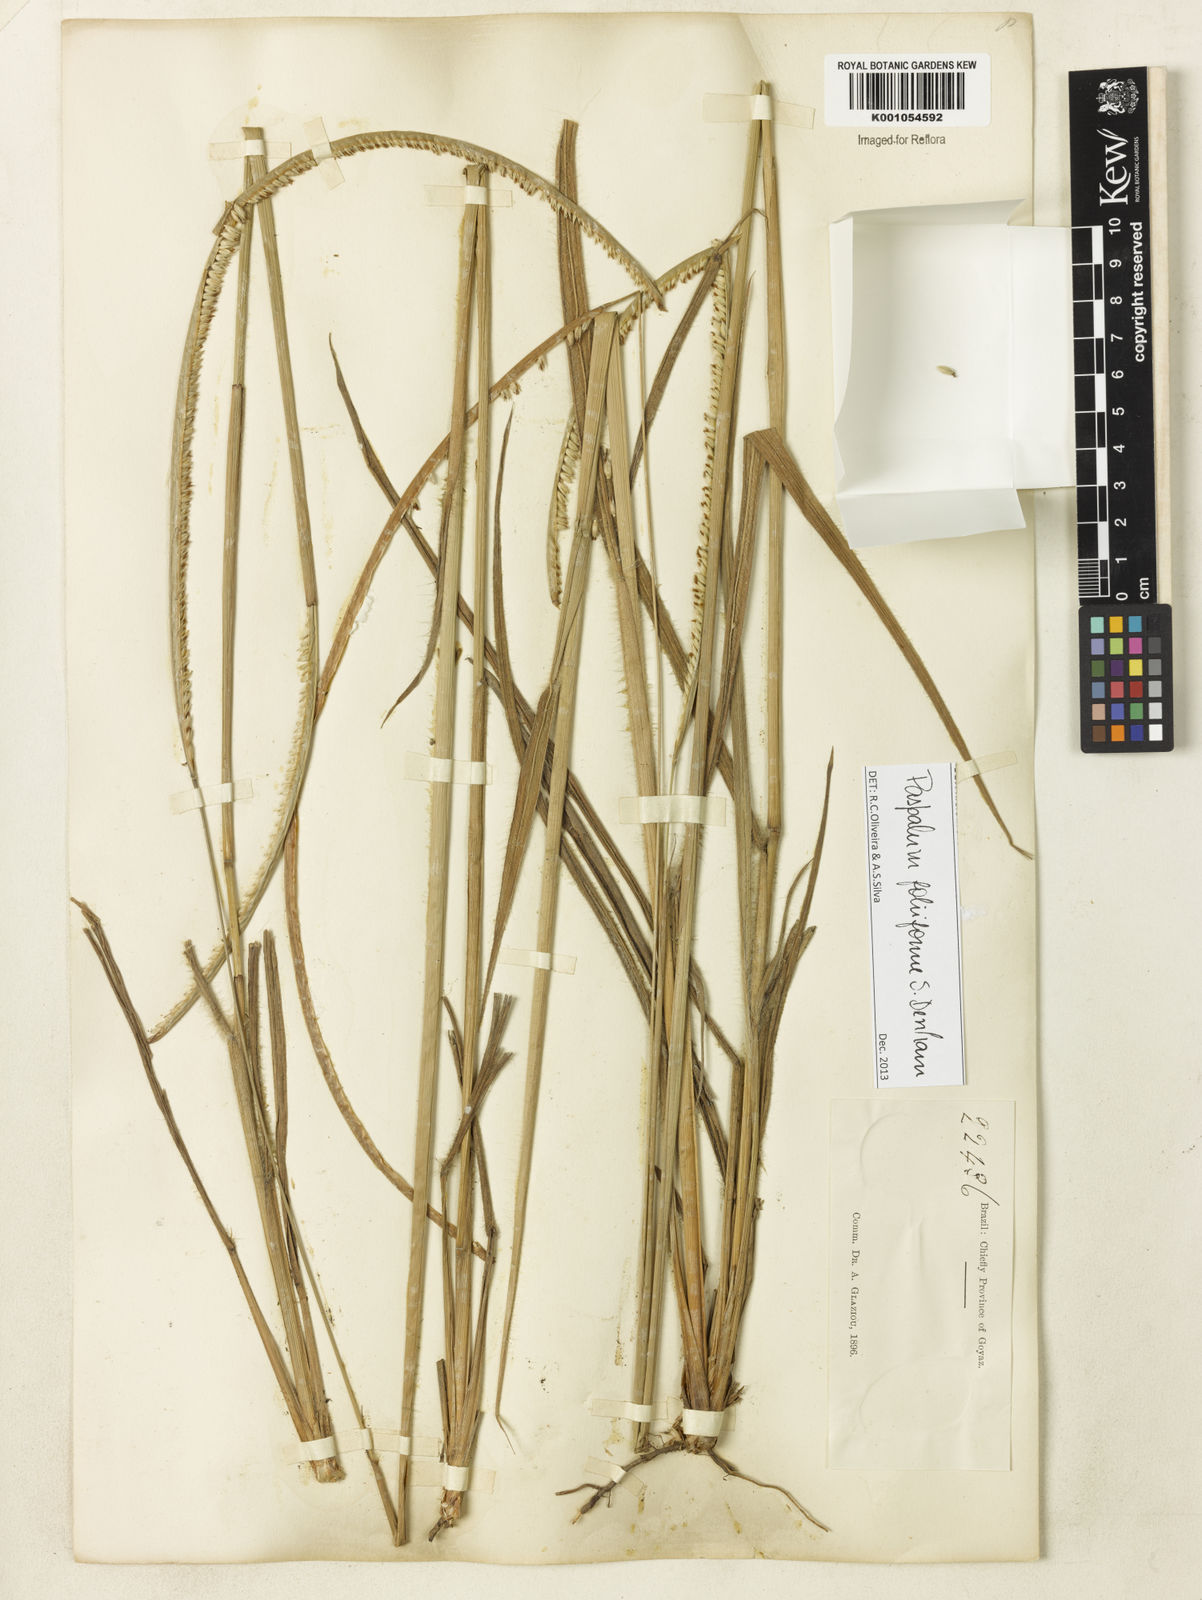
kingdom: Plantae
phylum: Tracheophyta
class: Liliopsida
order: Poales
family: Poaceae
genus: Paspalum
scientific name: Paspalum foliiforme
